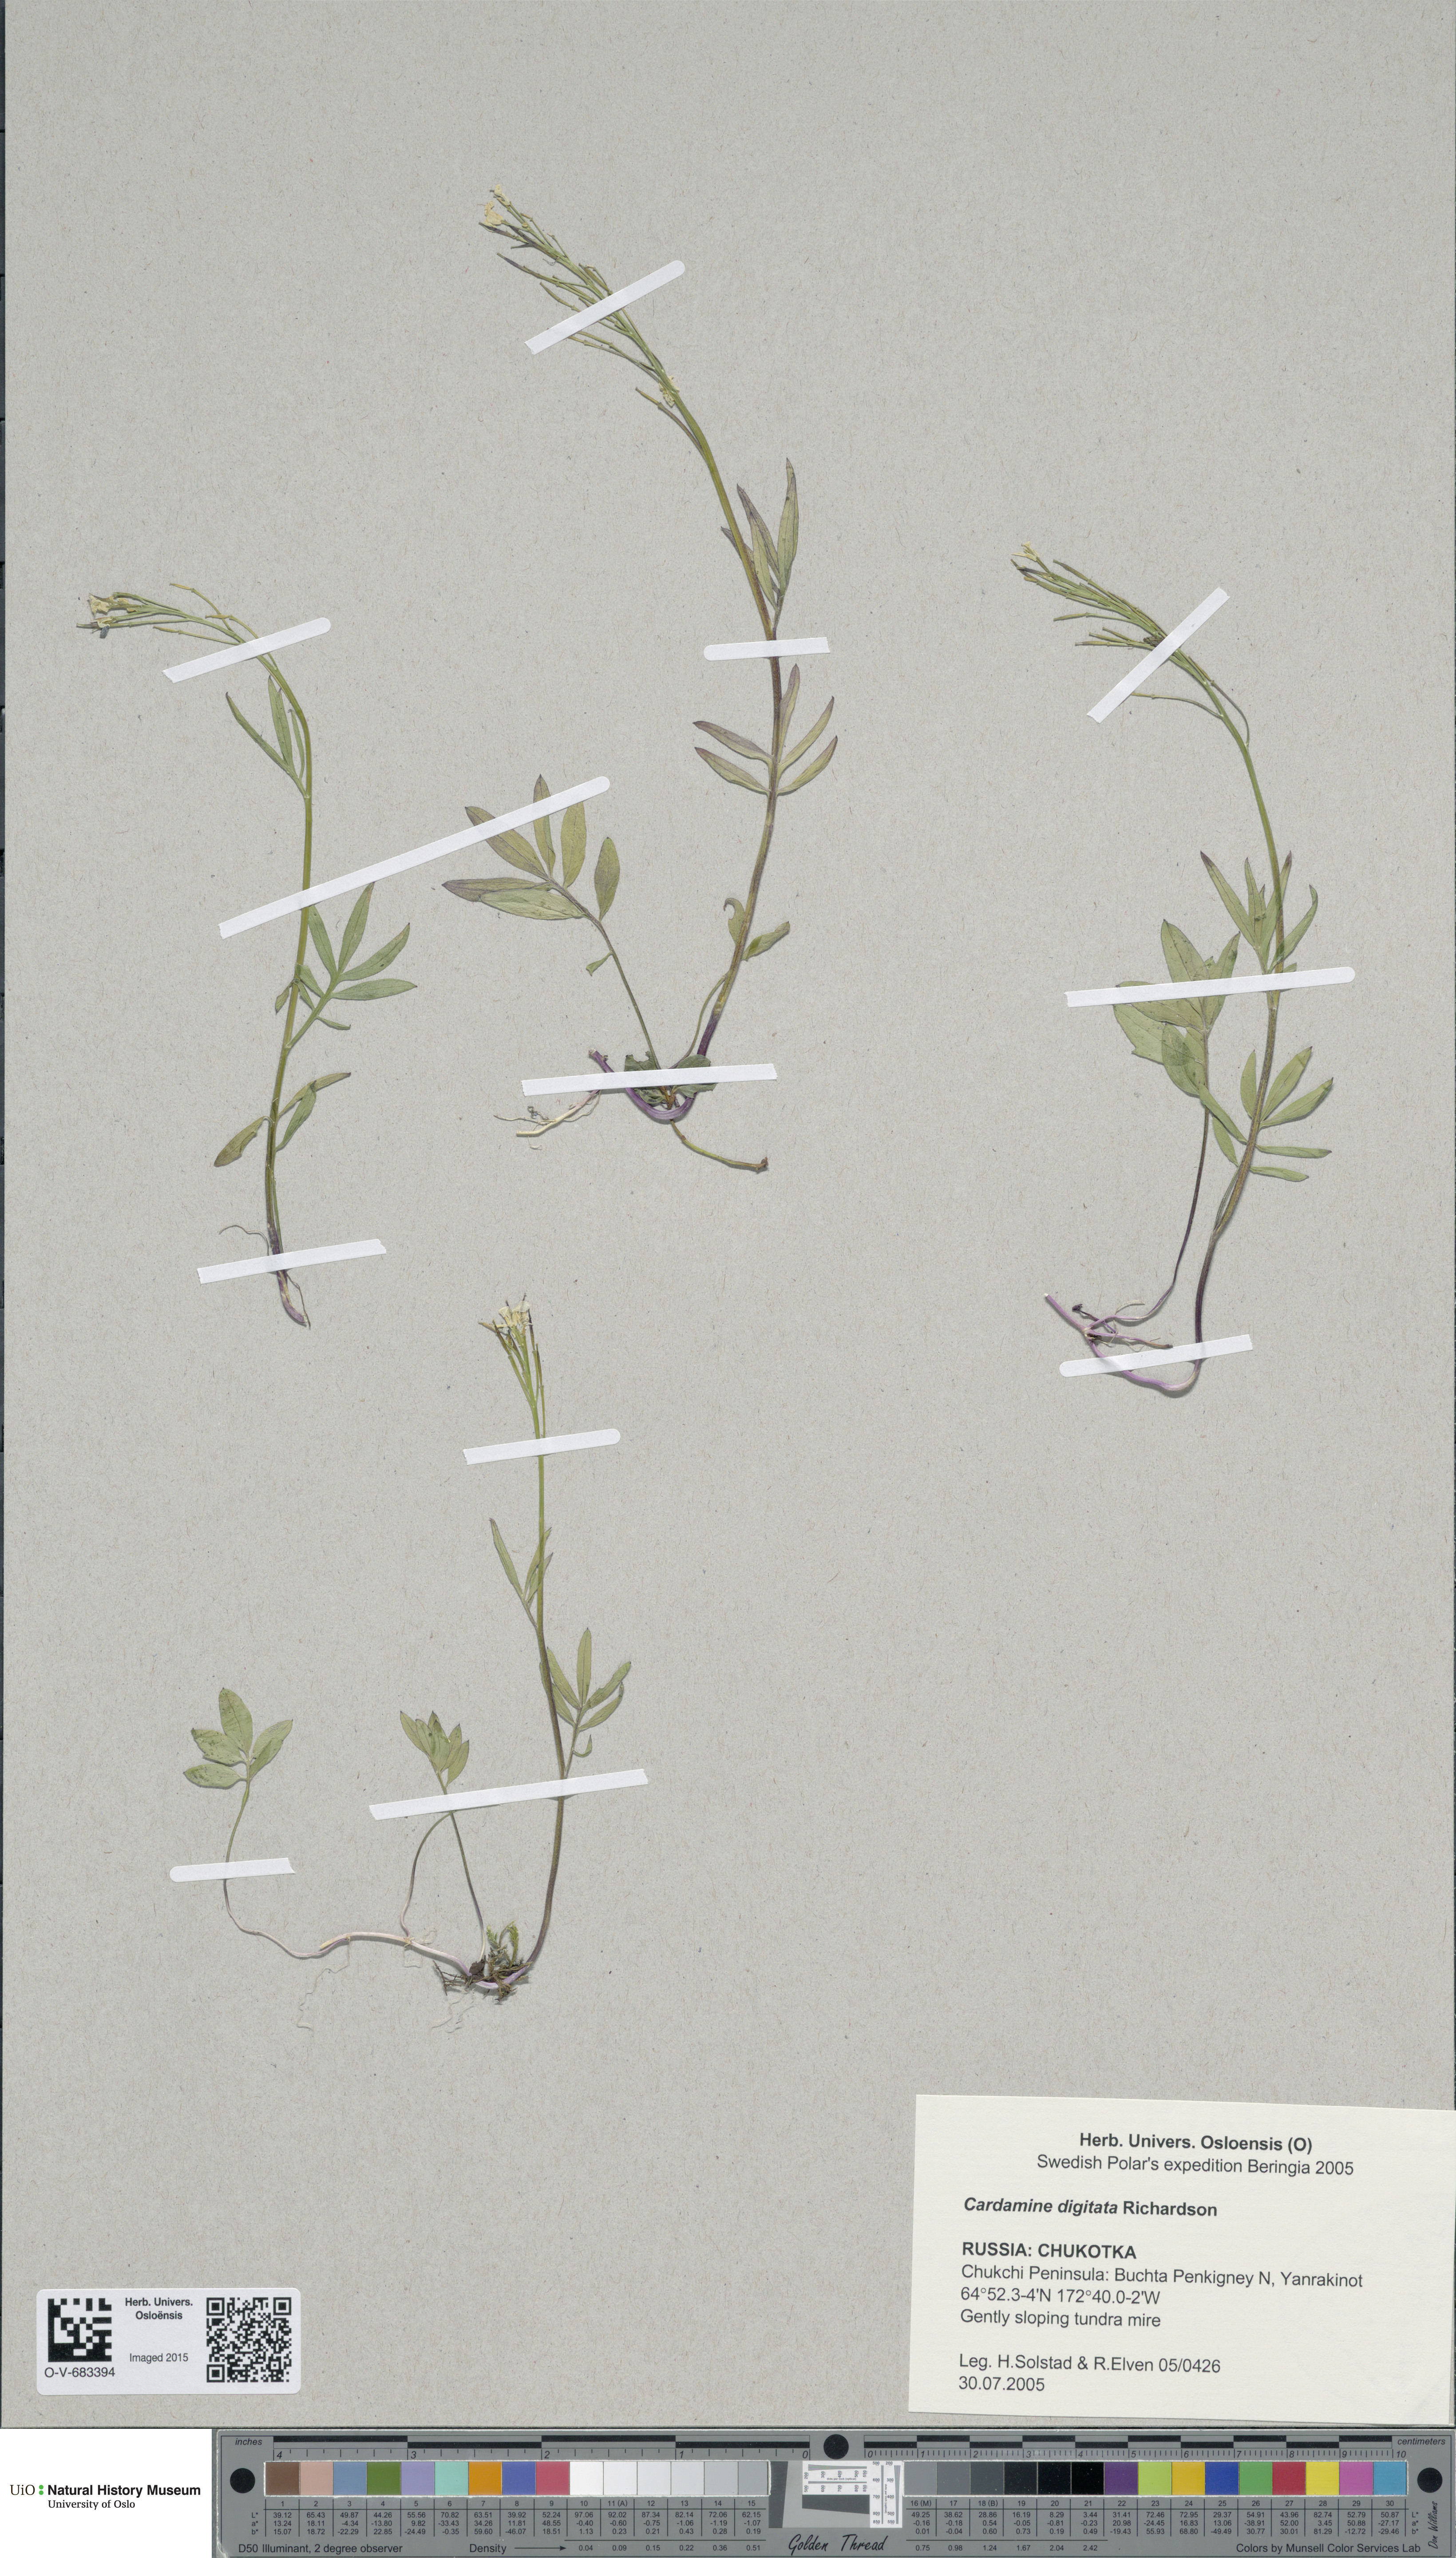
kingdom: Plantae
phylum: Tracheophyta
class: Magnoliopsida
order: Brassicales
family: Brassicaceae
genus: Cardamine
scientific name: Cardamine digitata
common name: Richardson's bittercress
